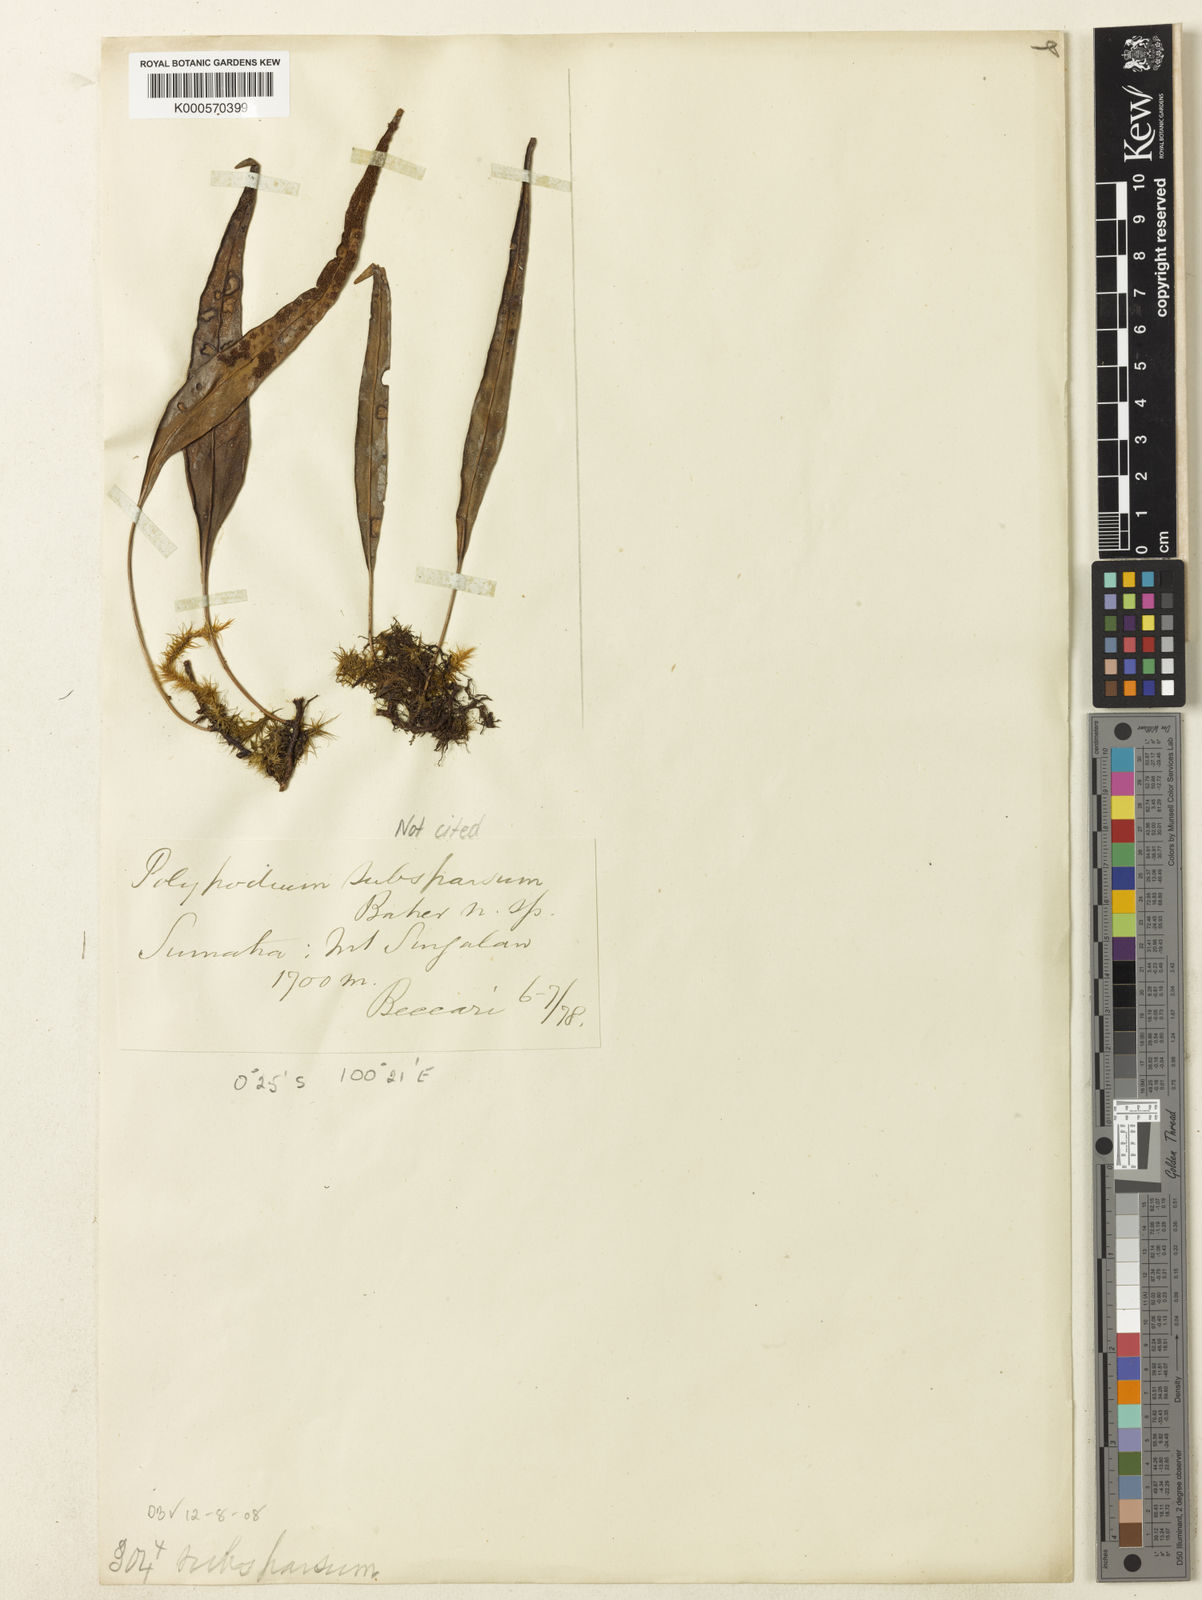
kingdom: Plantae
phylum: Tracheophyta
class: Polypodiopsida
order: Polypodiales
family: Polypodiaceae
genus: Selliguea
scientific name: Selliguea subsparsa
